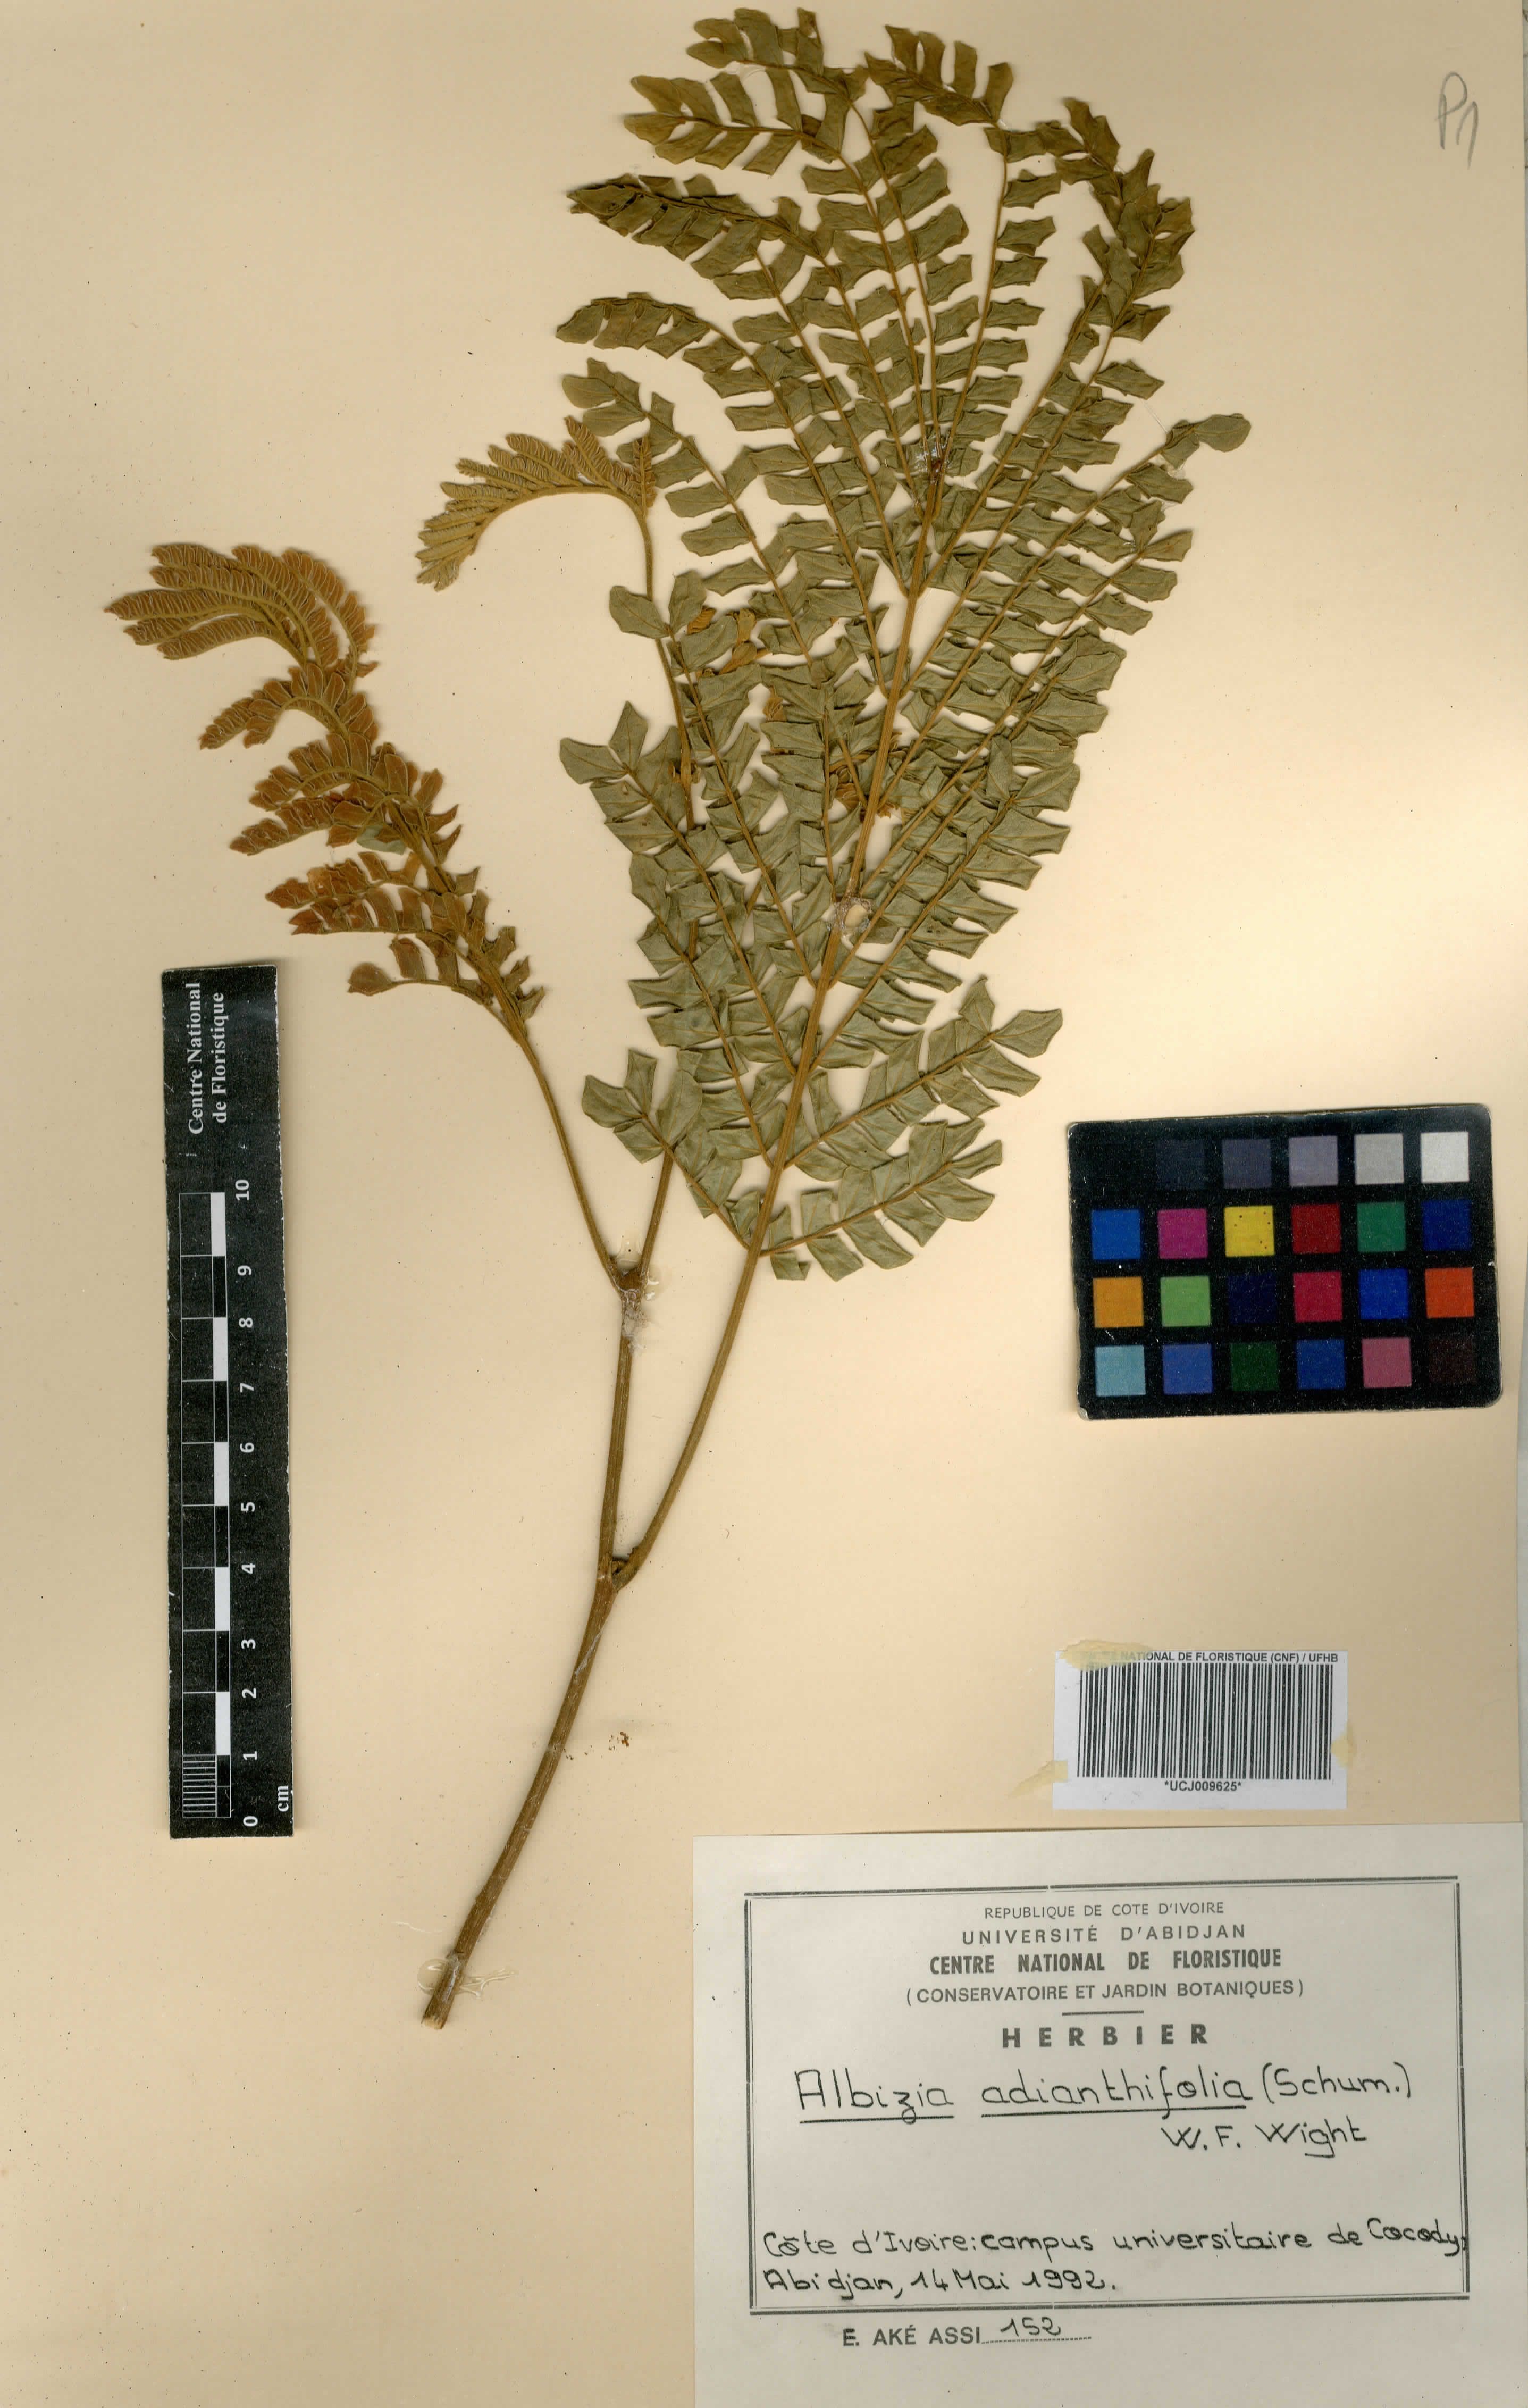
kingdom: Plantae
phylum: Tracheophyta
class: Magnoliopsida
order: Fabales
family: Fabaceae
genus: Albizia
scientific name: Albizia adianthifolia
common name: West african albizia
